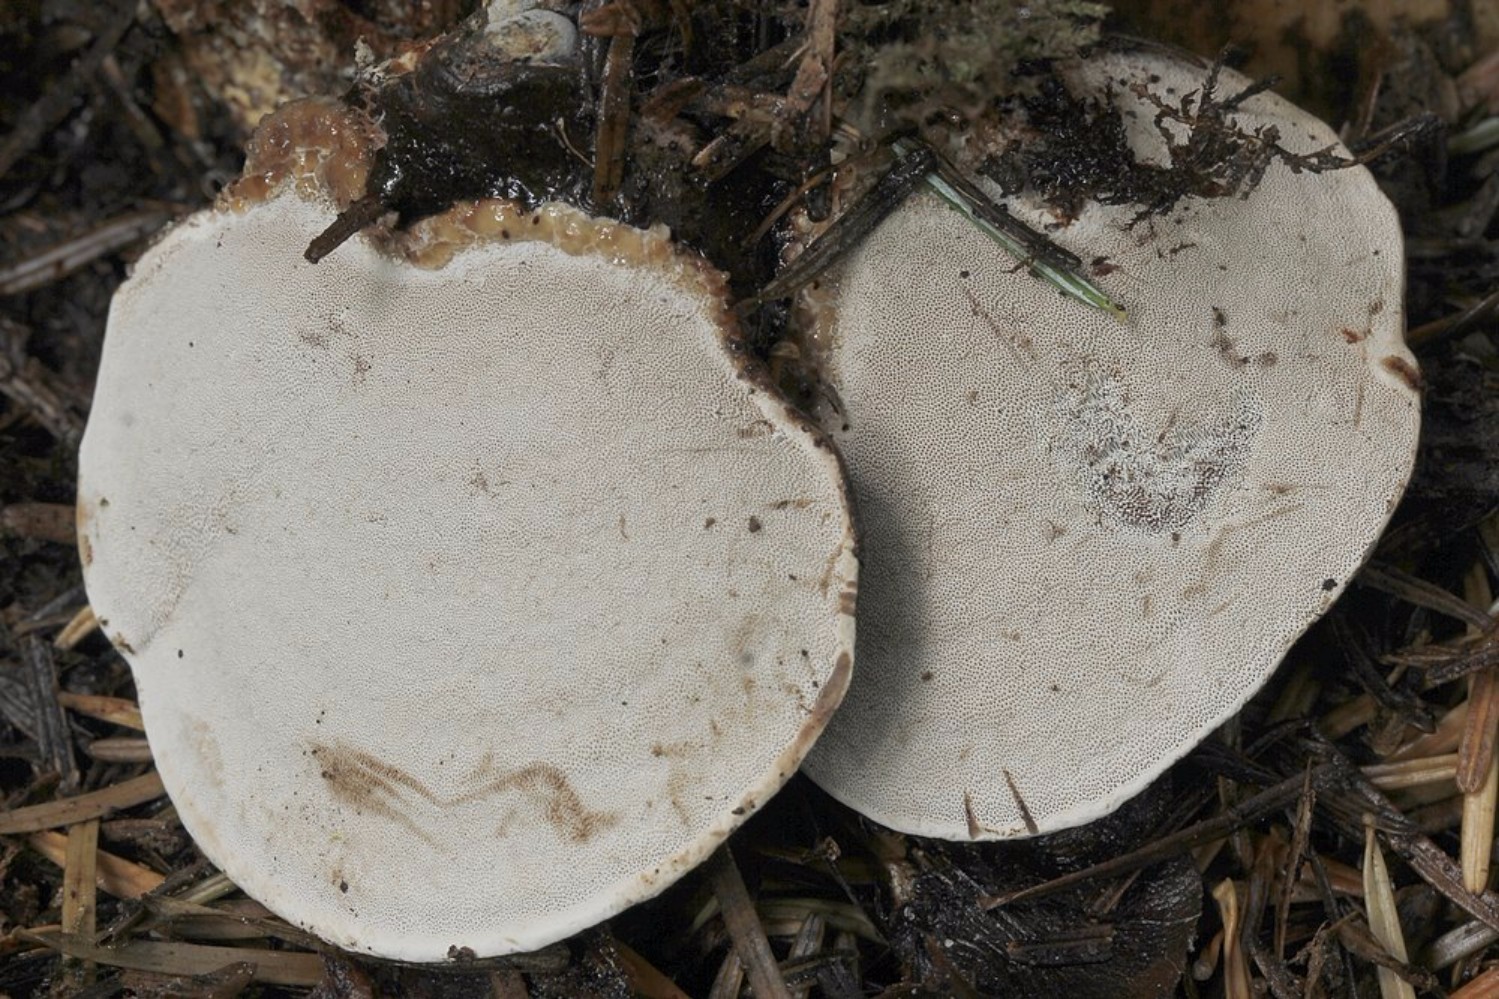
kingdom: Fungi
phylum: Basidiomycota
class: Agaricomycetes
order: Polyporales
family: Polyporaceae
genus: Ganoderma
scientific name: Ganoderma applanatum
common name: flad lakporesvamp
